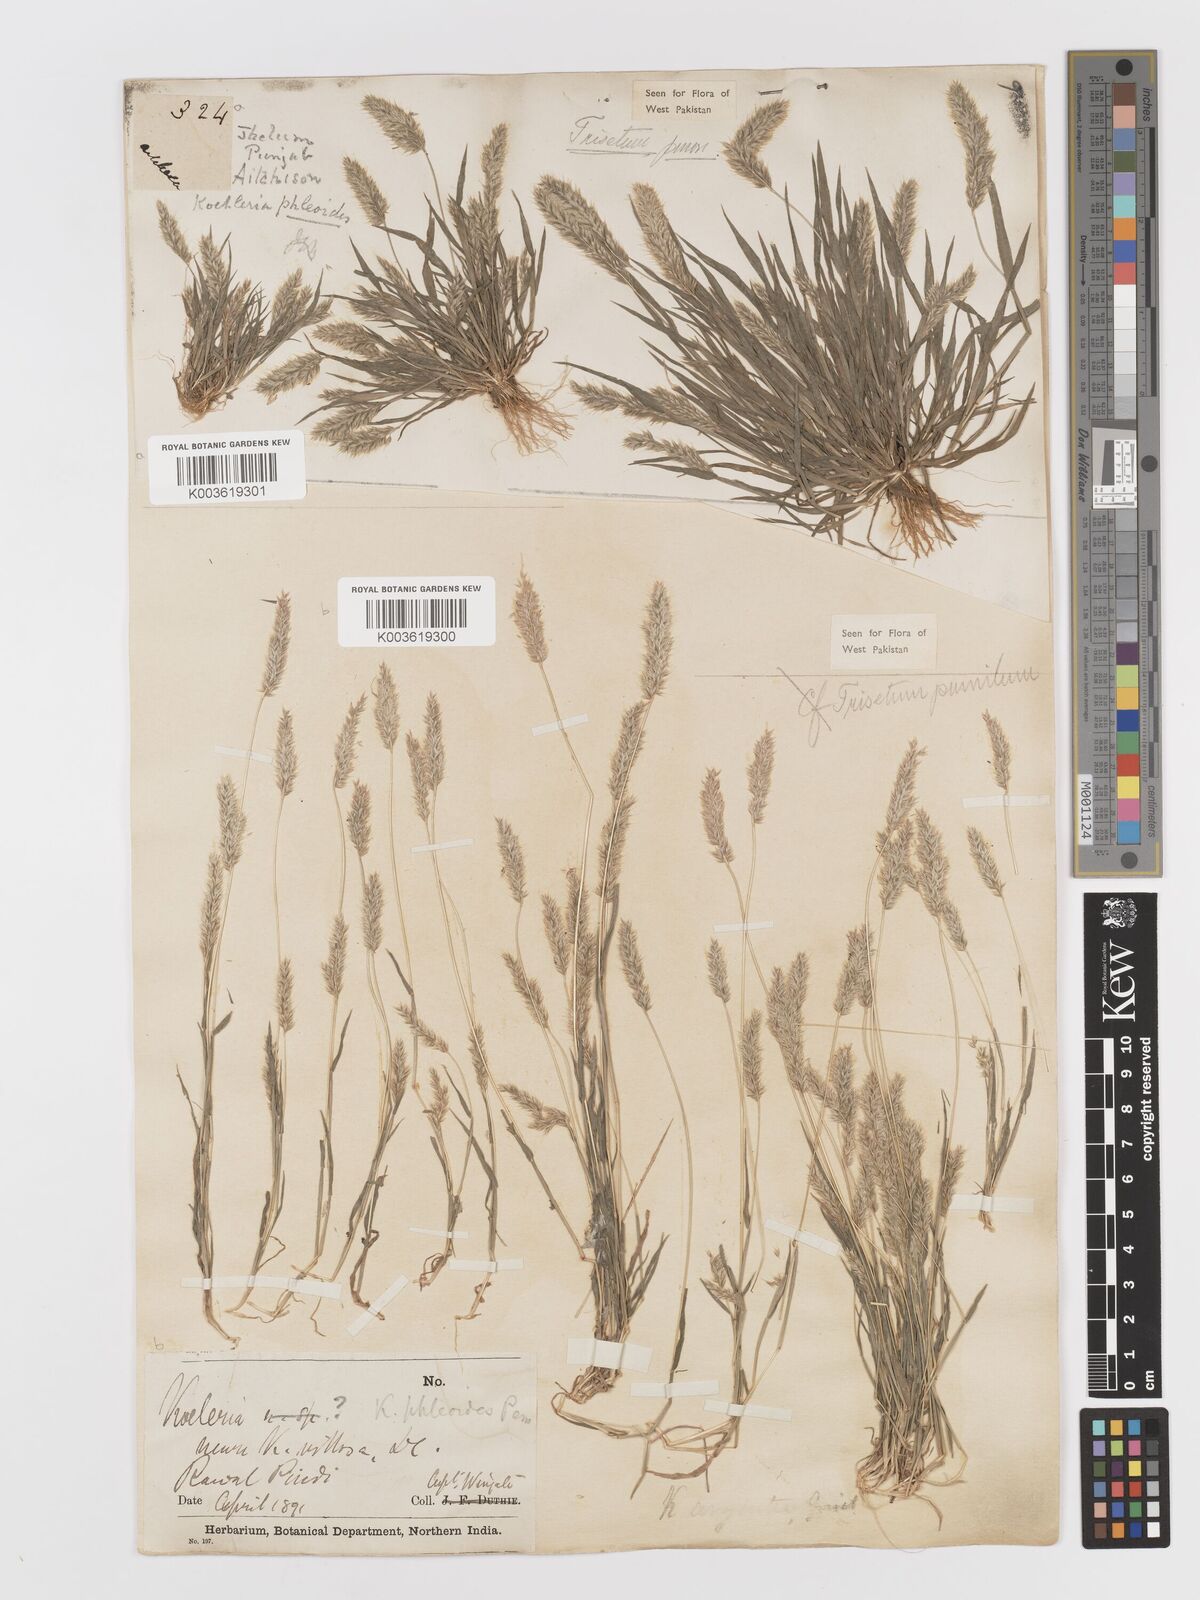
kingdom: Plantae
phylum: Tracheophyta
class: Liliopsida
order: Poales
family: Poaceae
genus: Rostraria
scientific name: Rostraria pumila
